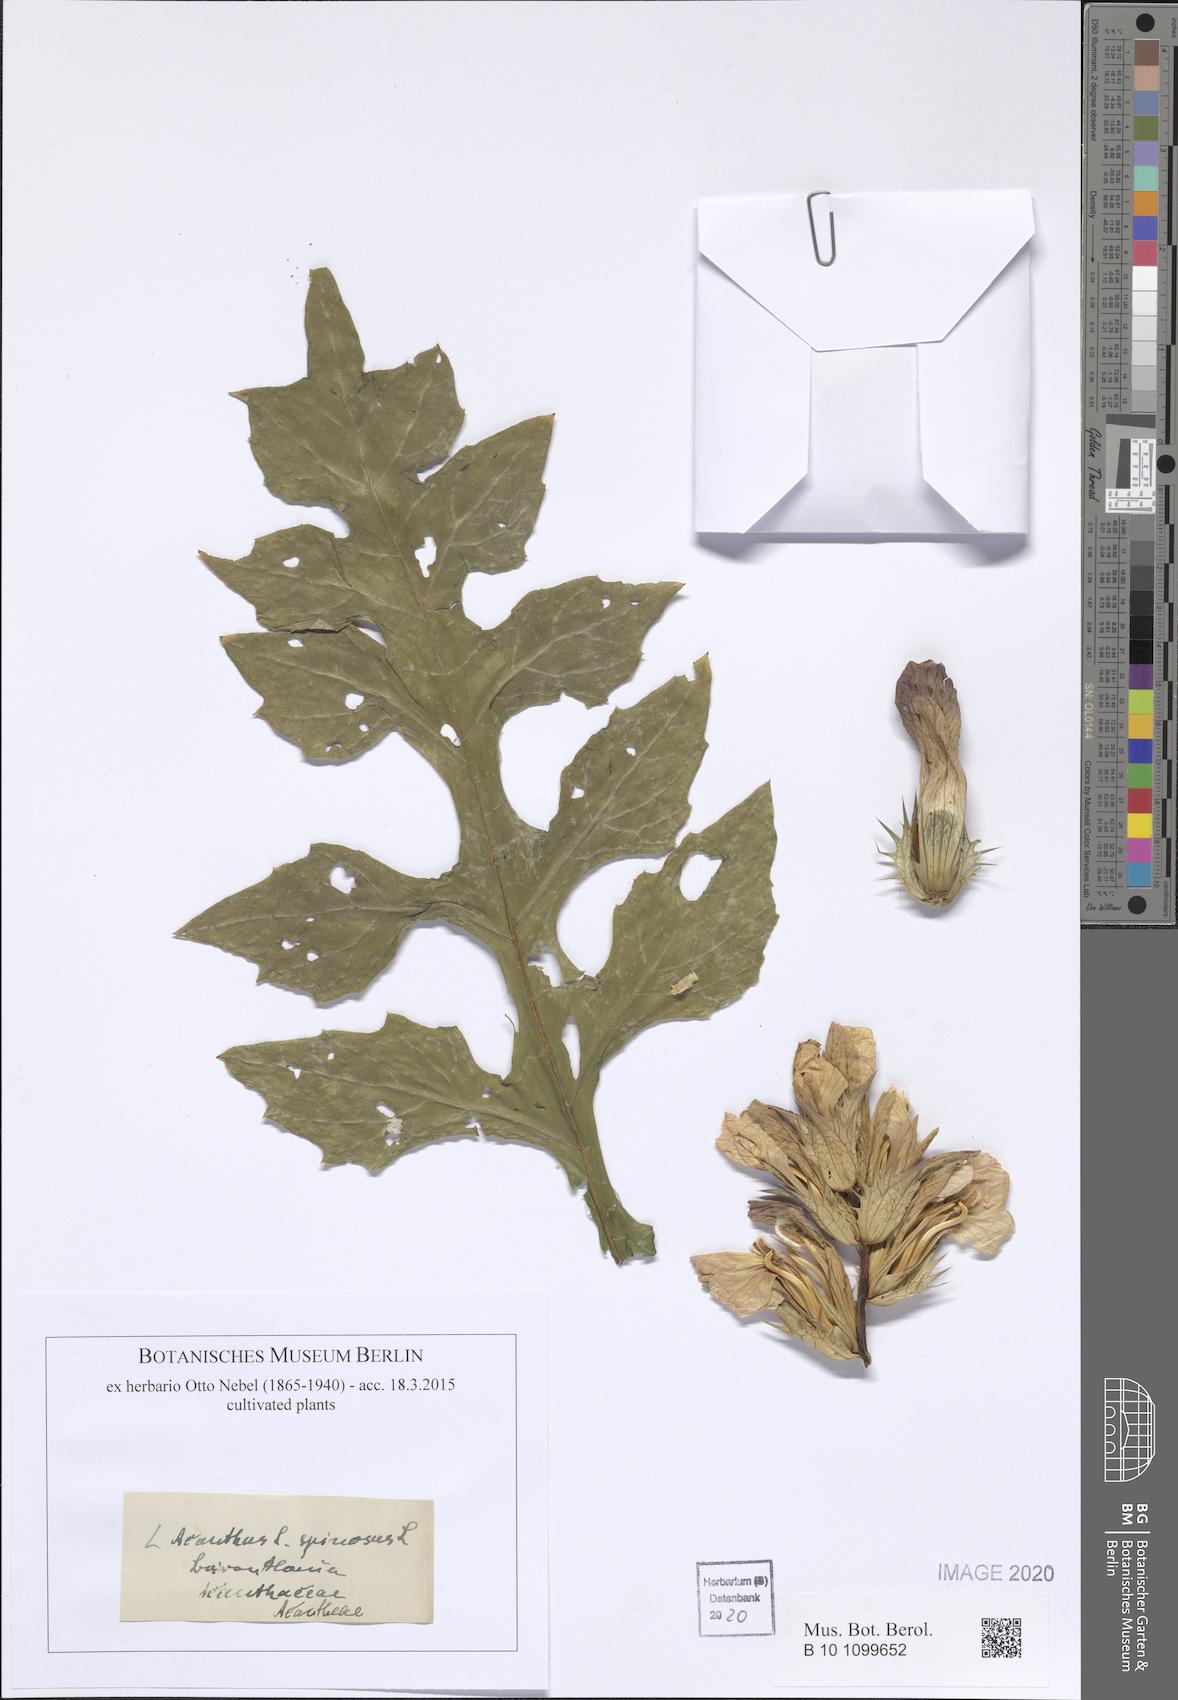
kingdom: Plantae
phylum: Tracheophyta
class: Magnoliopsida
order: Lamiales
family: Acanthaceae
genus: Acanthus
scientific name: Acanthus spinosus
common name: Spiny bear's-breech
